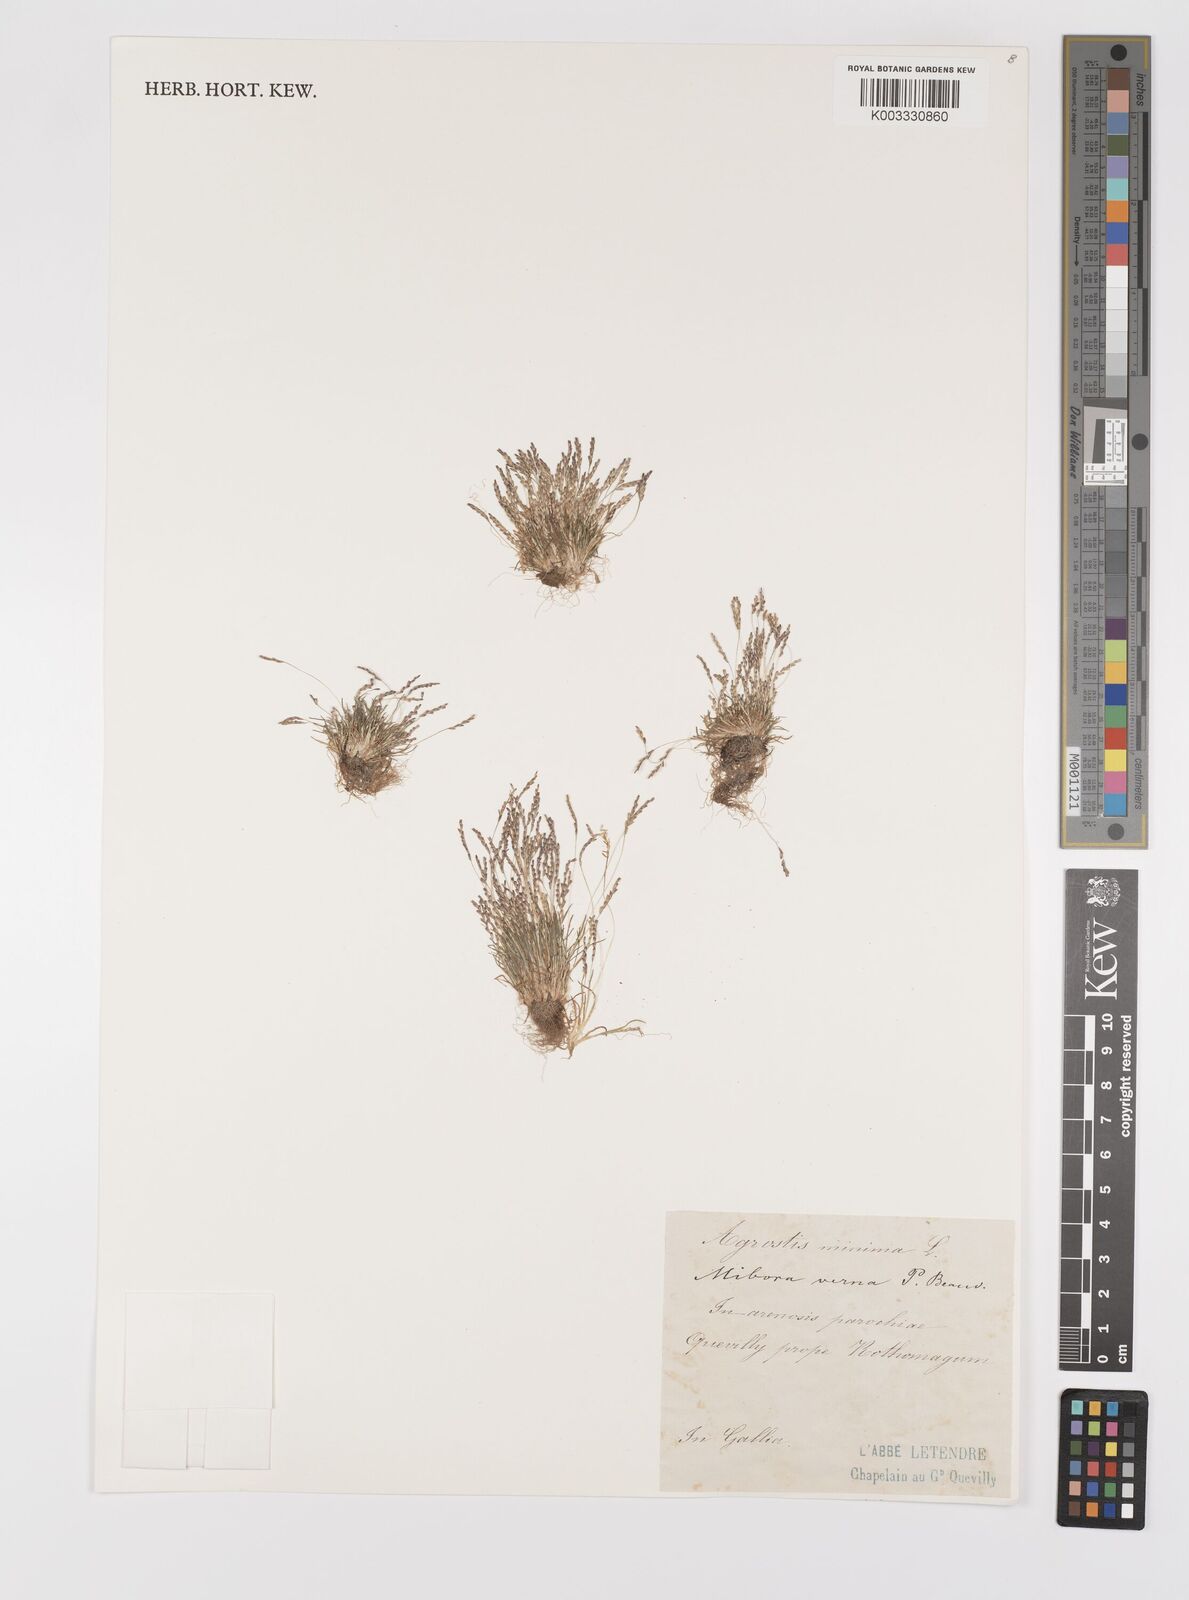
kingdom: Plantae
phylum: Tracheophyta
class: Liliopsida
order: Poales
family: Poaceae
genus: Mibora
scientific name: Mibora minima
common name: Early sand-grass
